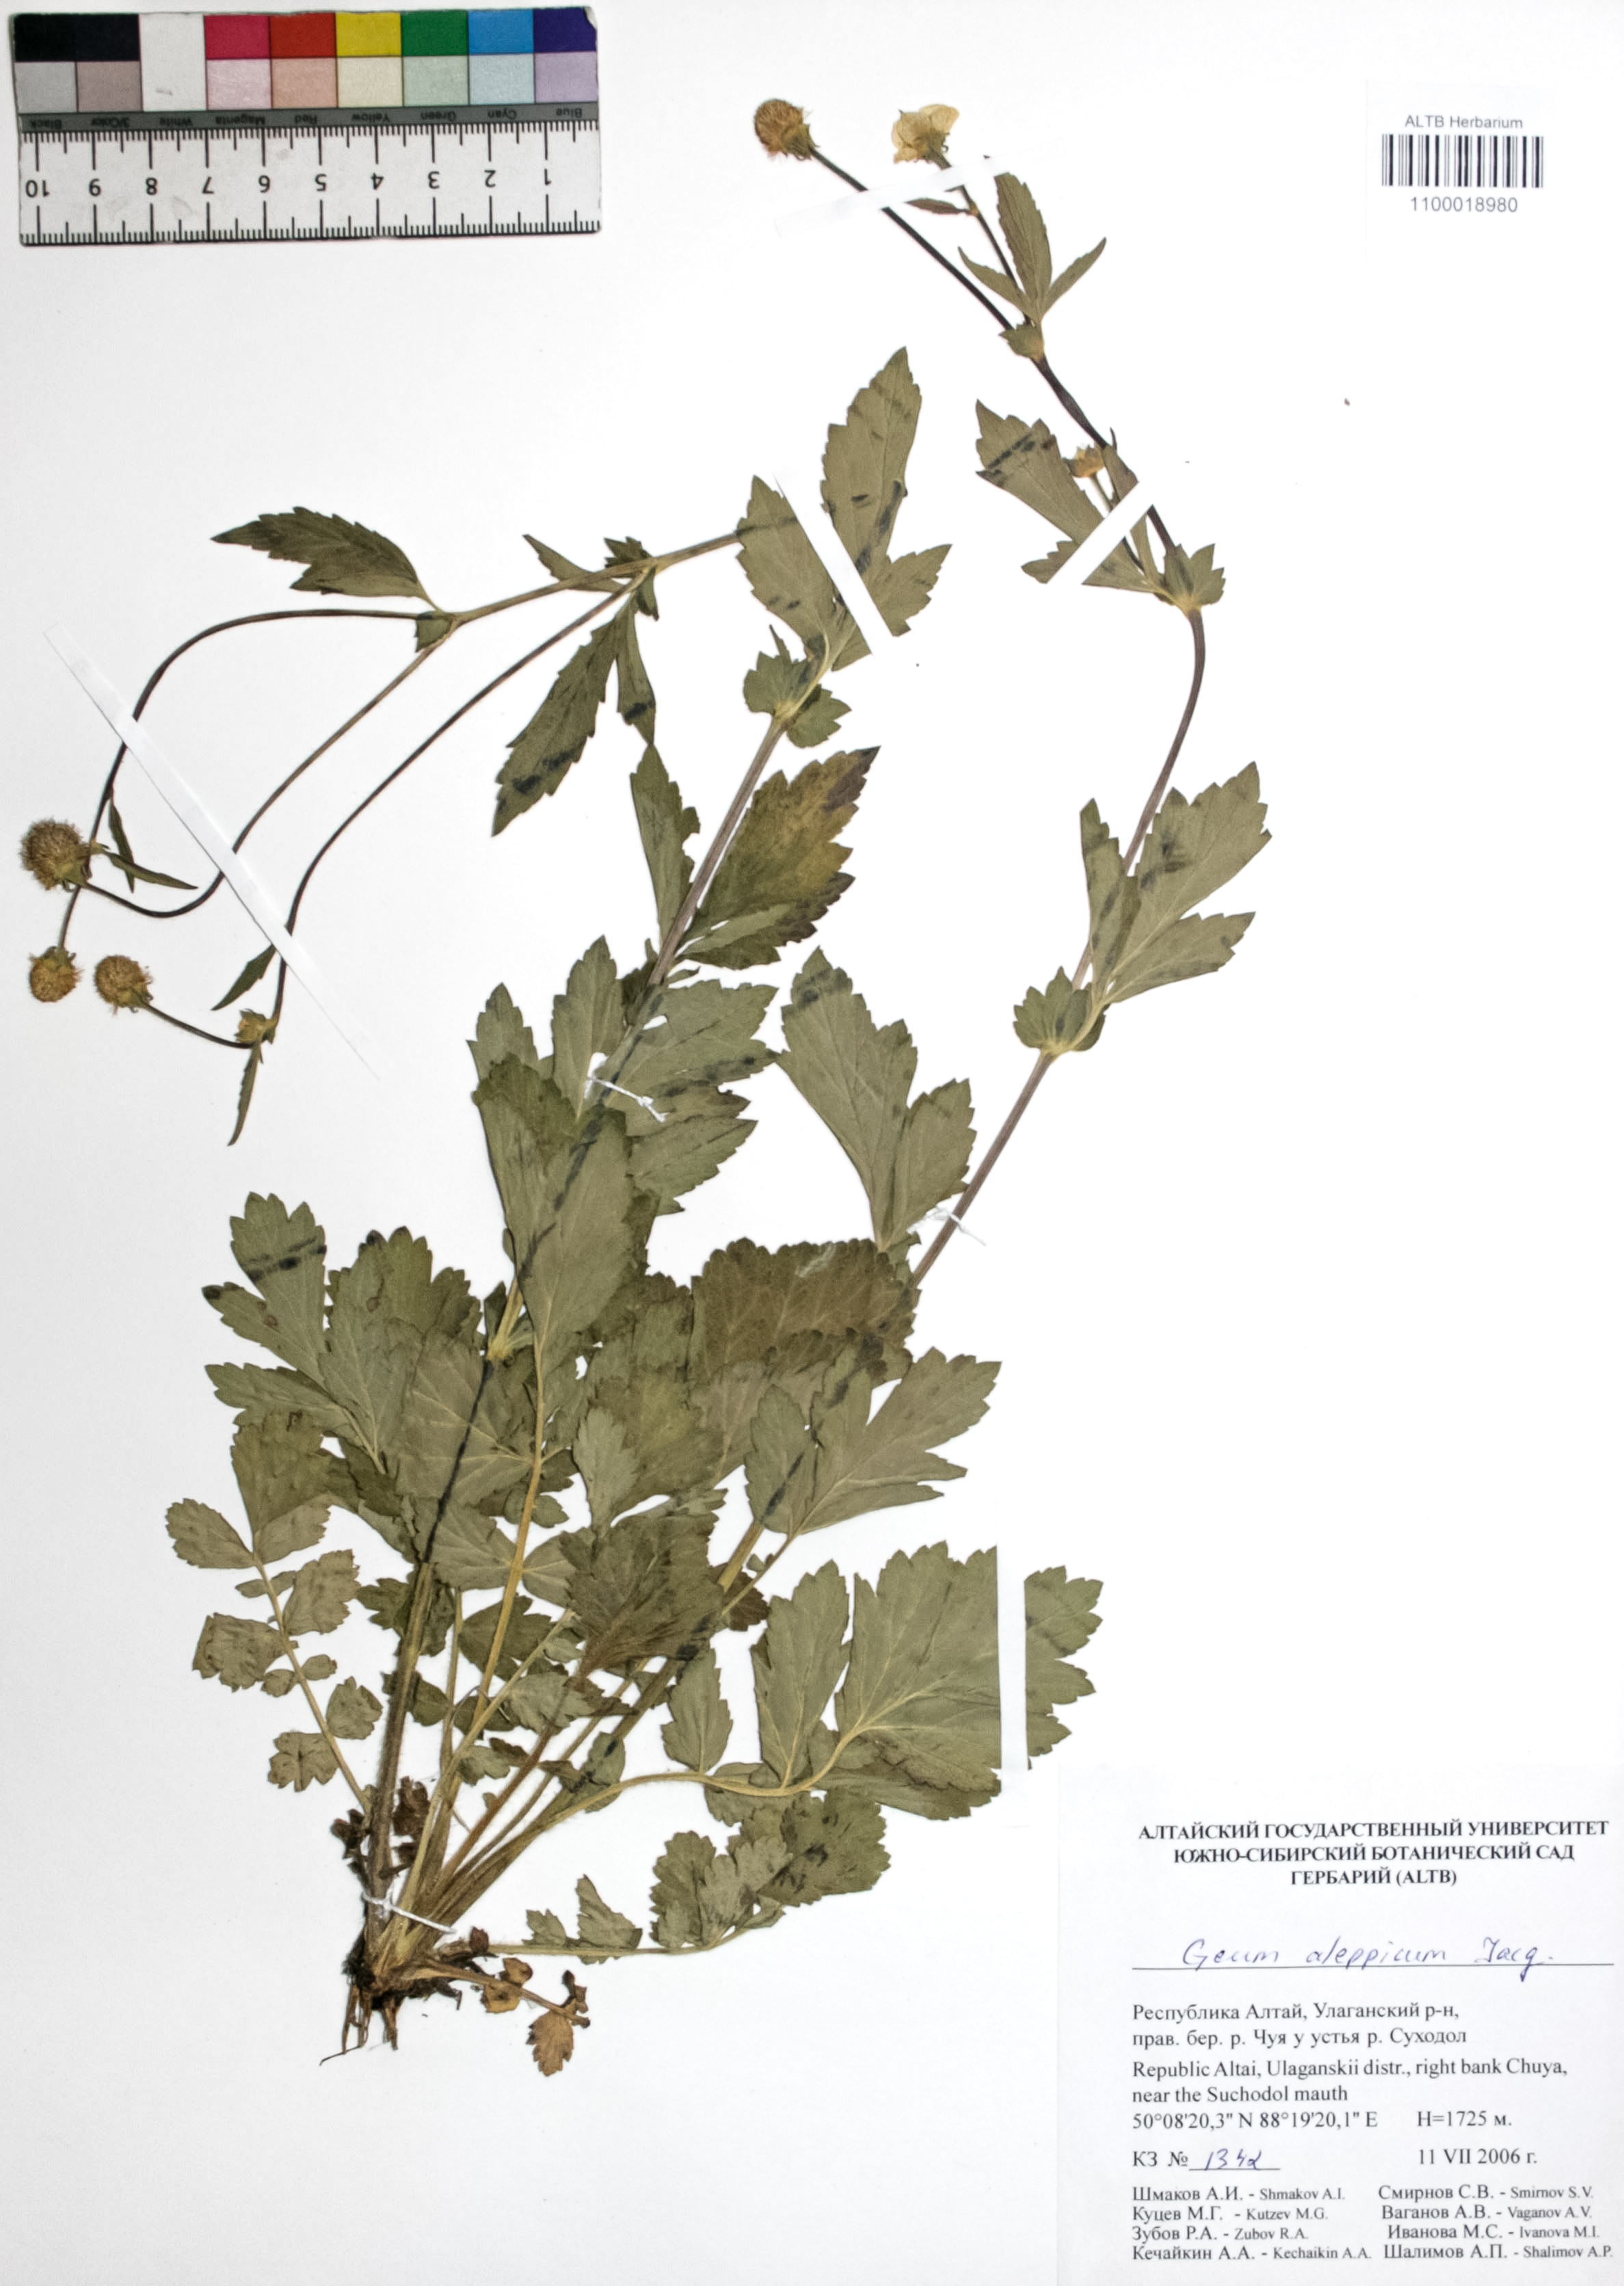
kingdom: Plantae
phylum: Tracheophyta
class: Magnoliopsida
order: Rosales
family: Rosaceae
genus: Geum
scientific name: Geum aleppicum
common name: Yellow avens
